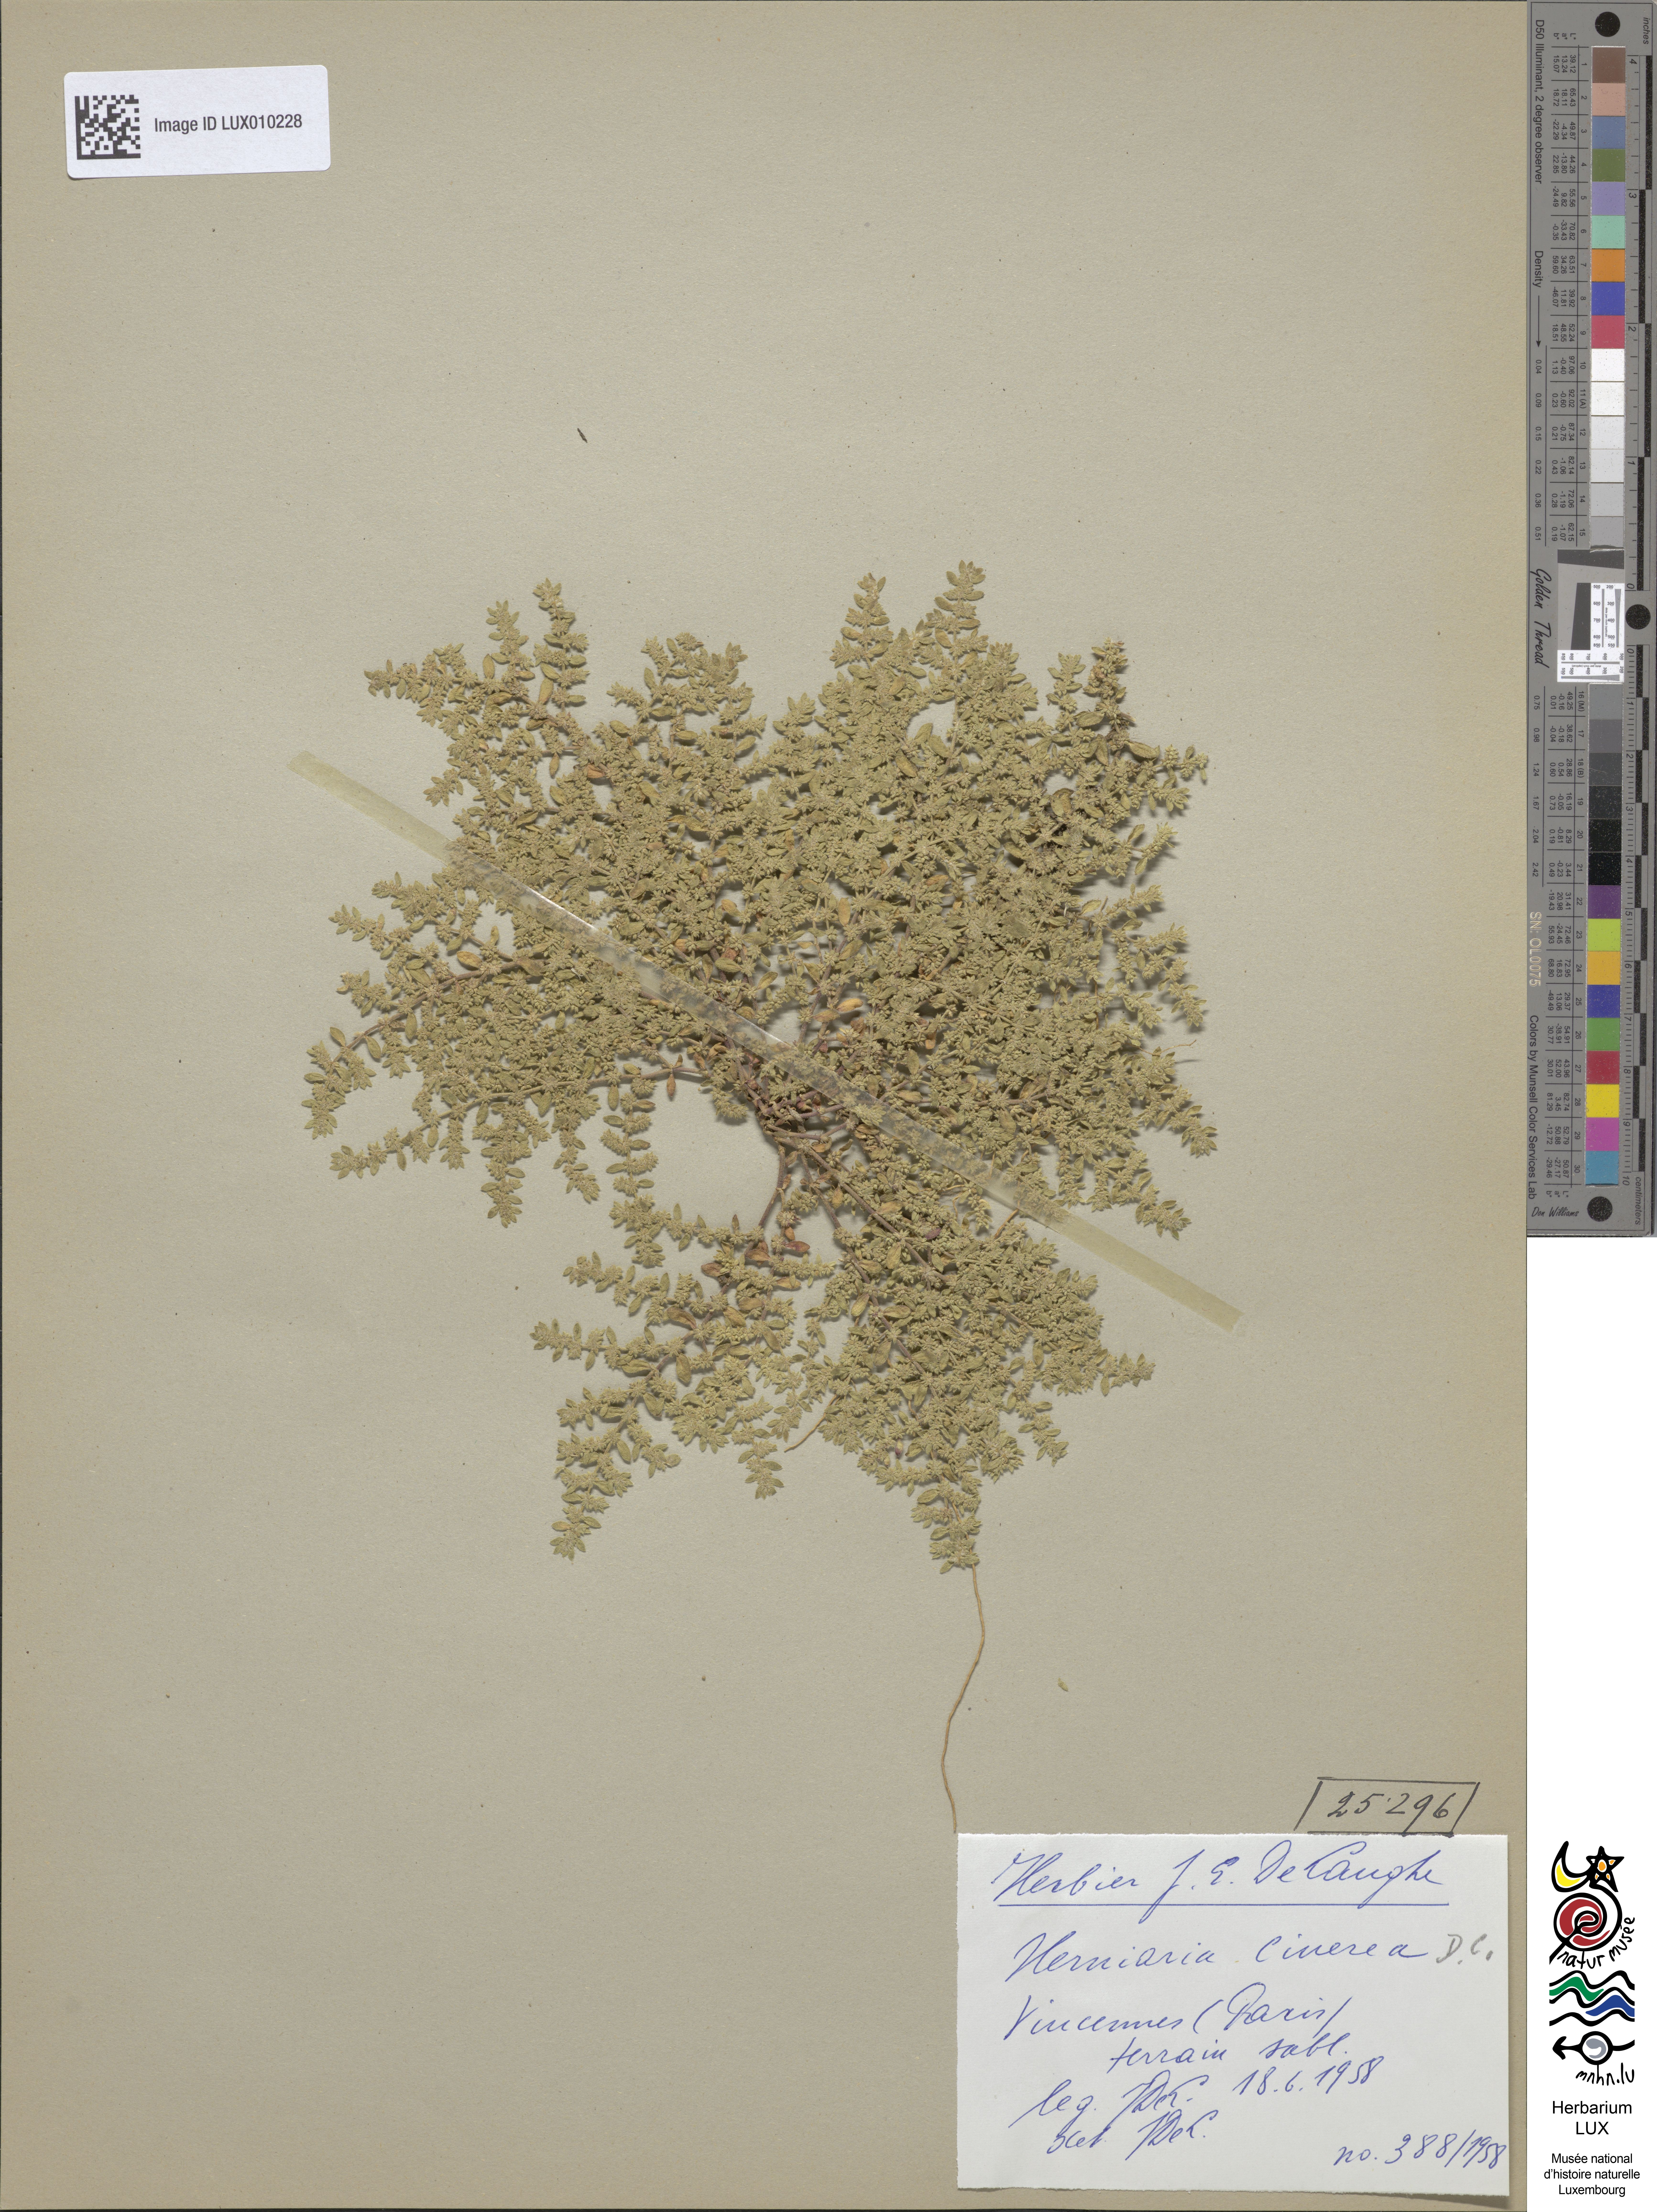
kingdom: Plantae
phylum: Tracheophyta
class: Magnoliopsida
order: Caryophyllales
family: Caryophyllaceae
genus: Herniaria
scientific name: Herniaria cinerea
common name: Hairy rupturewort
